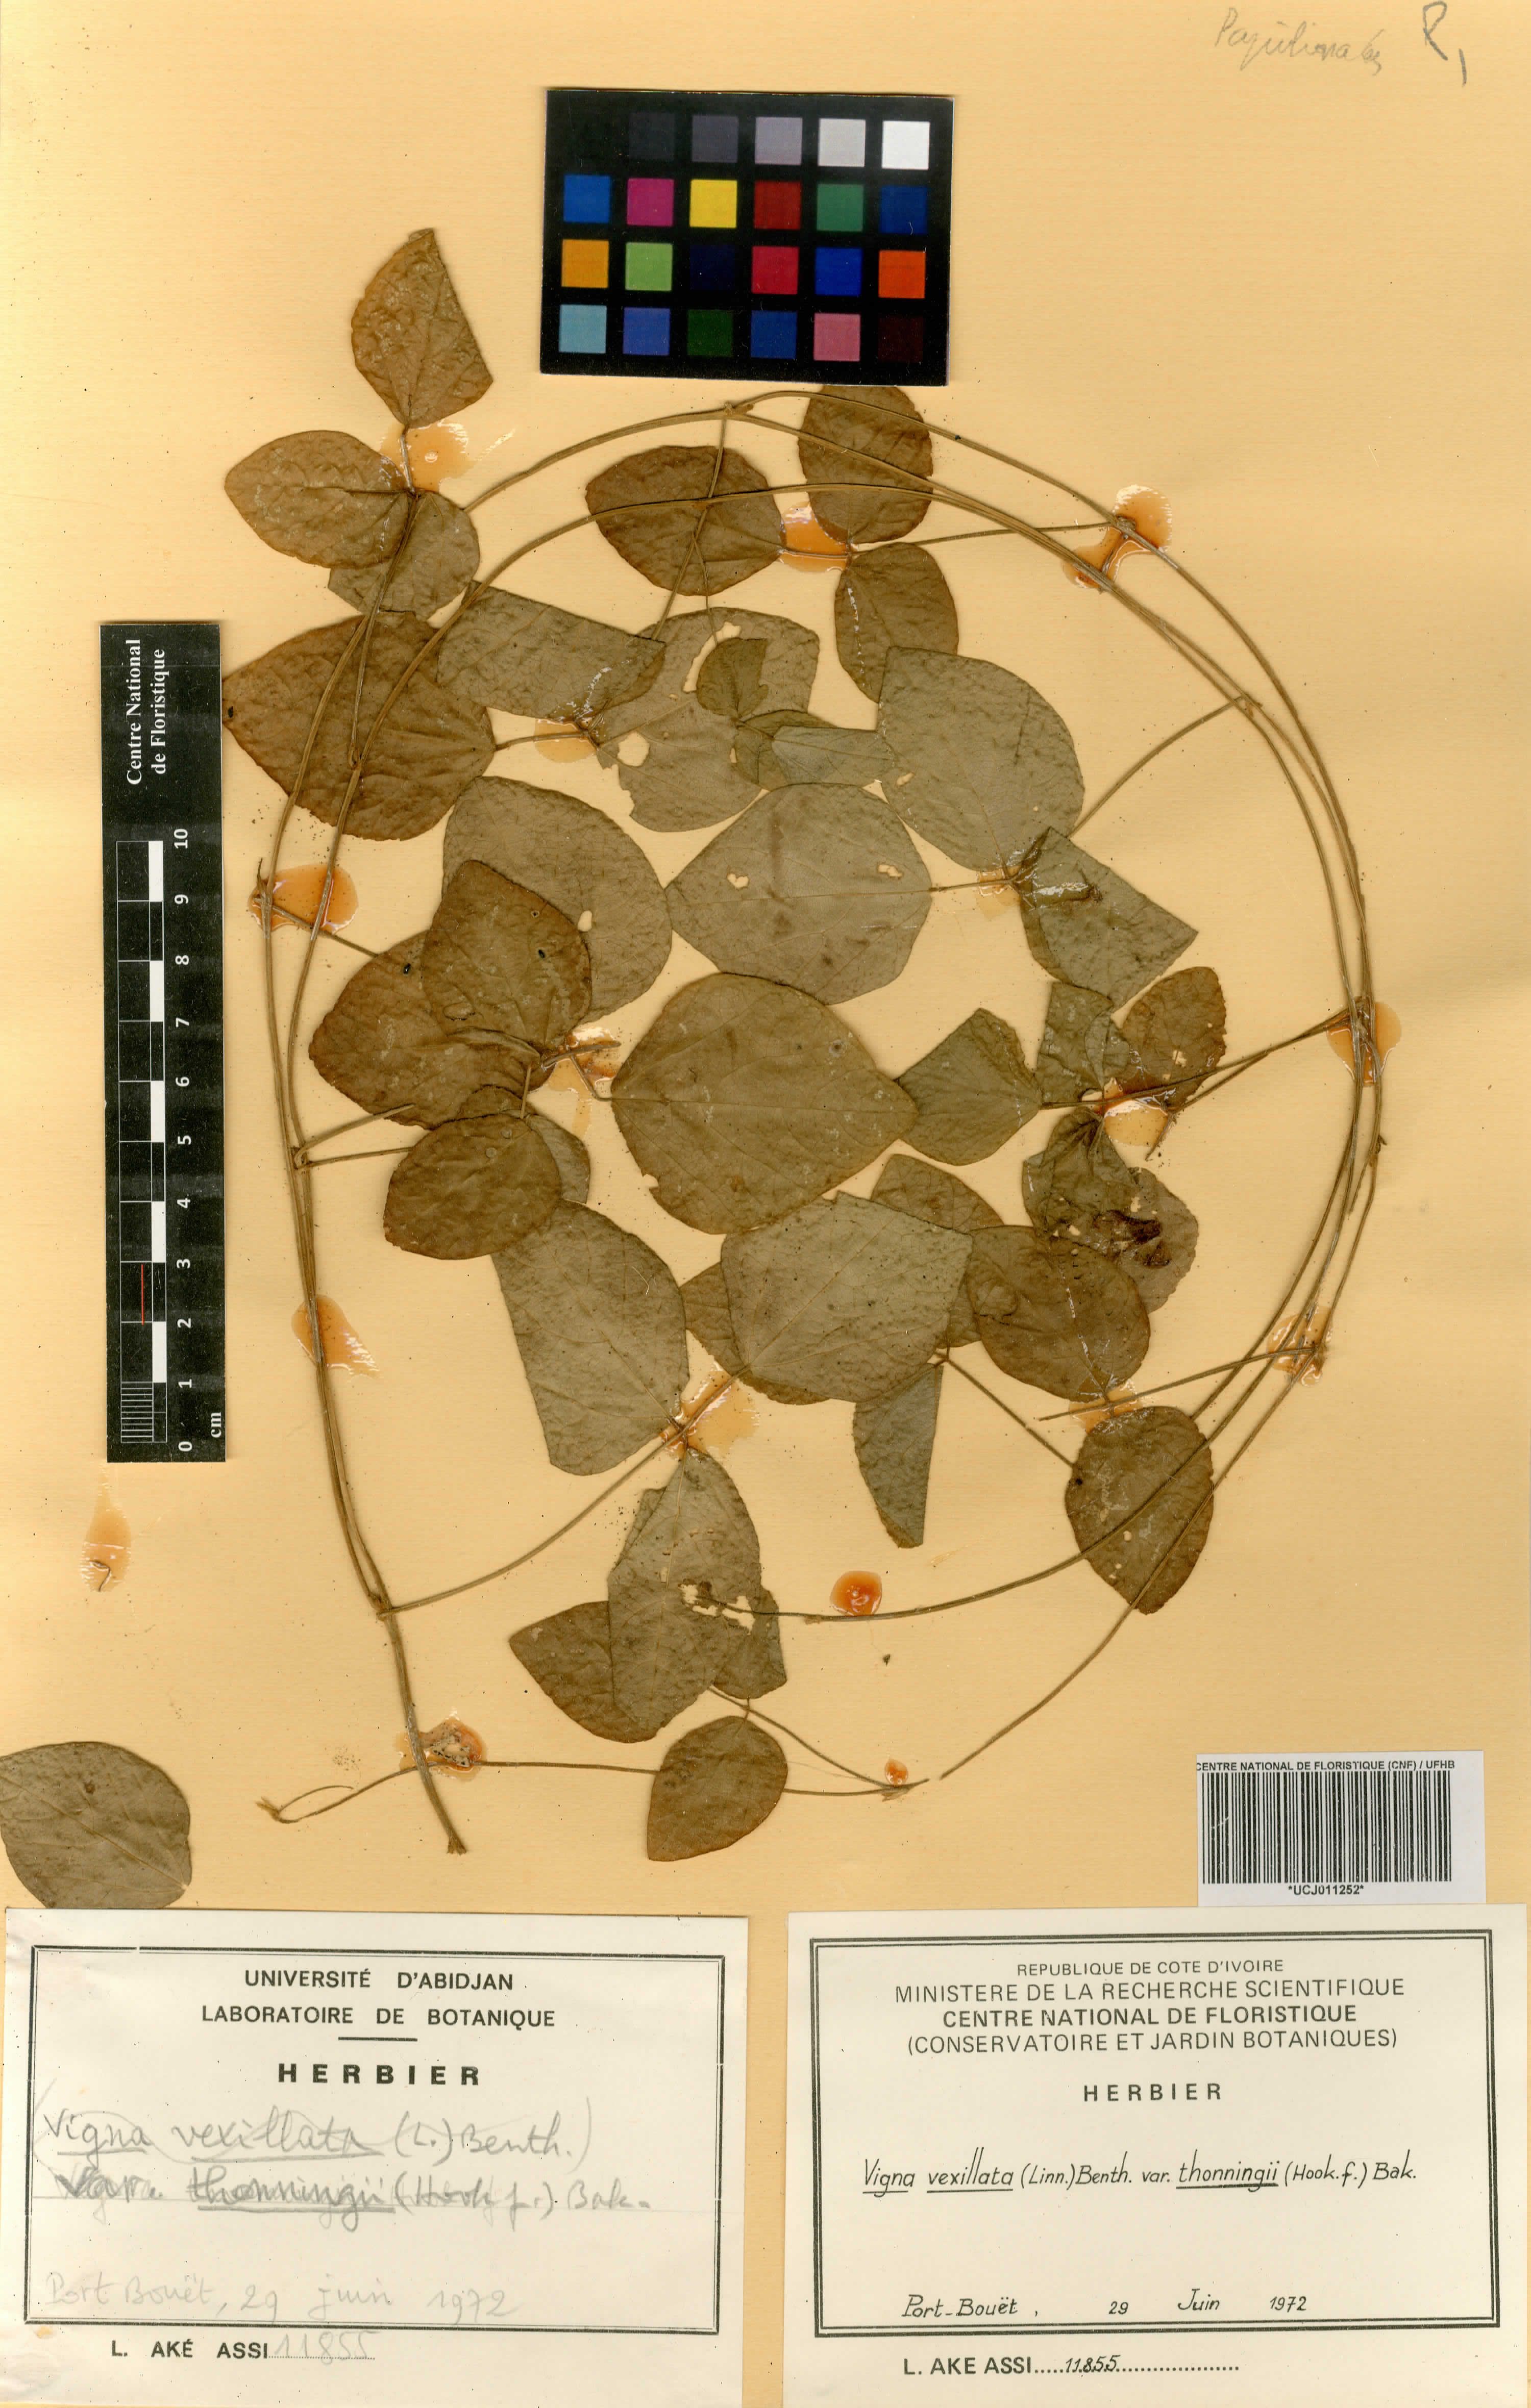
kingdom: Plantae
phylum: Tracheophyta
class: Magnoliopsida
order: Fabales
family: Fabaceae
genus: Zornia
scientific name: Zornia glochidiata
